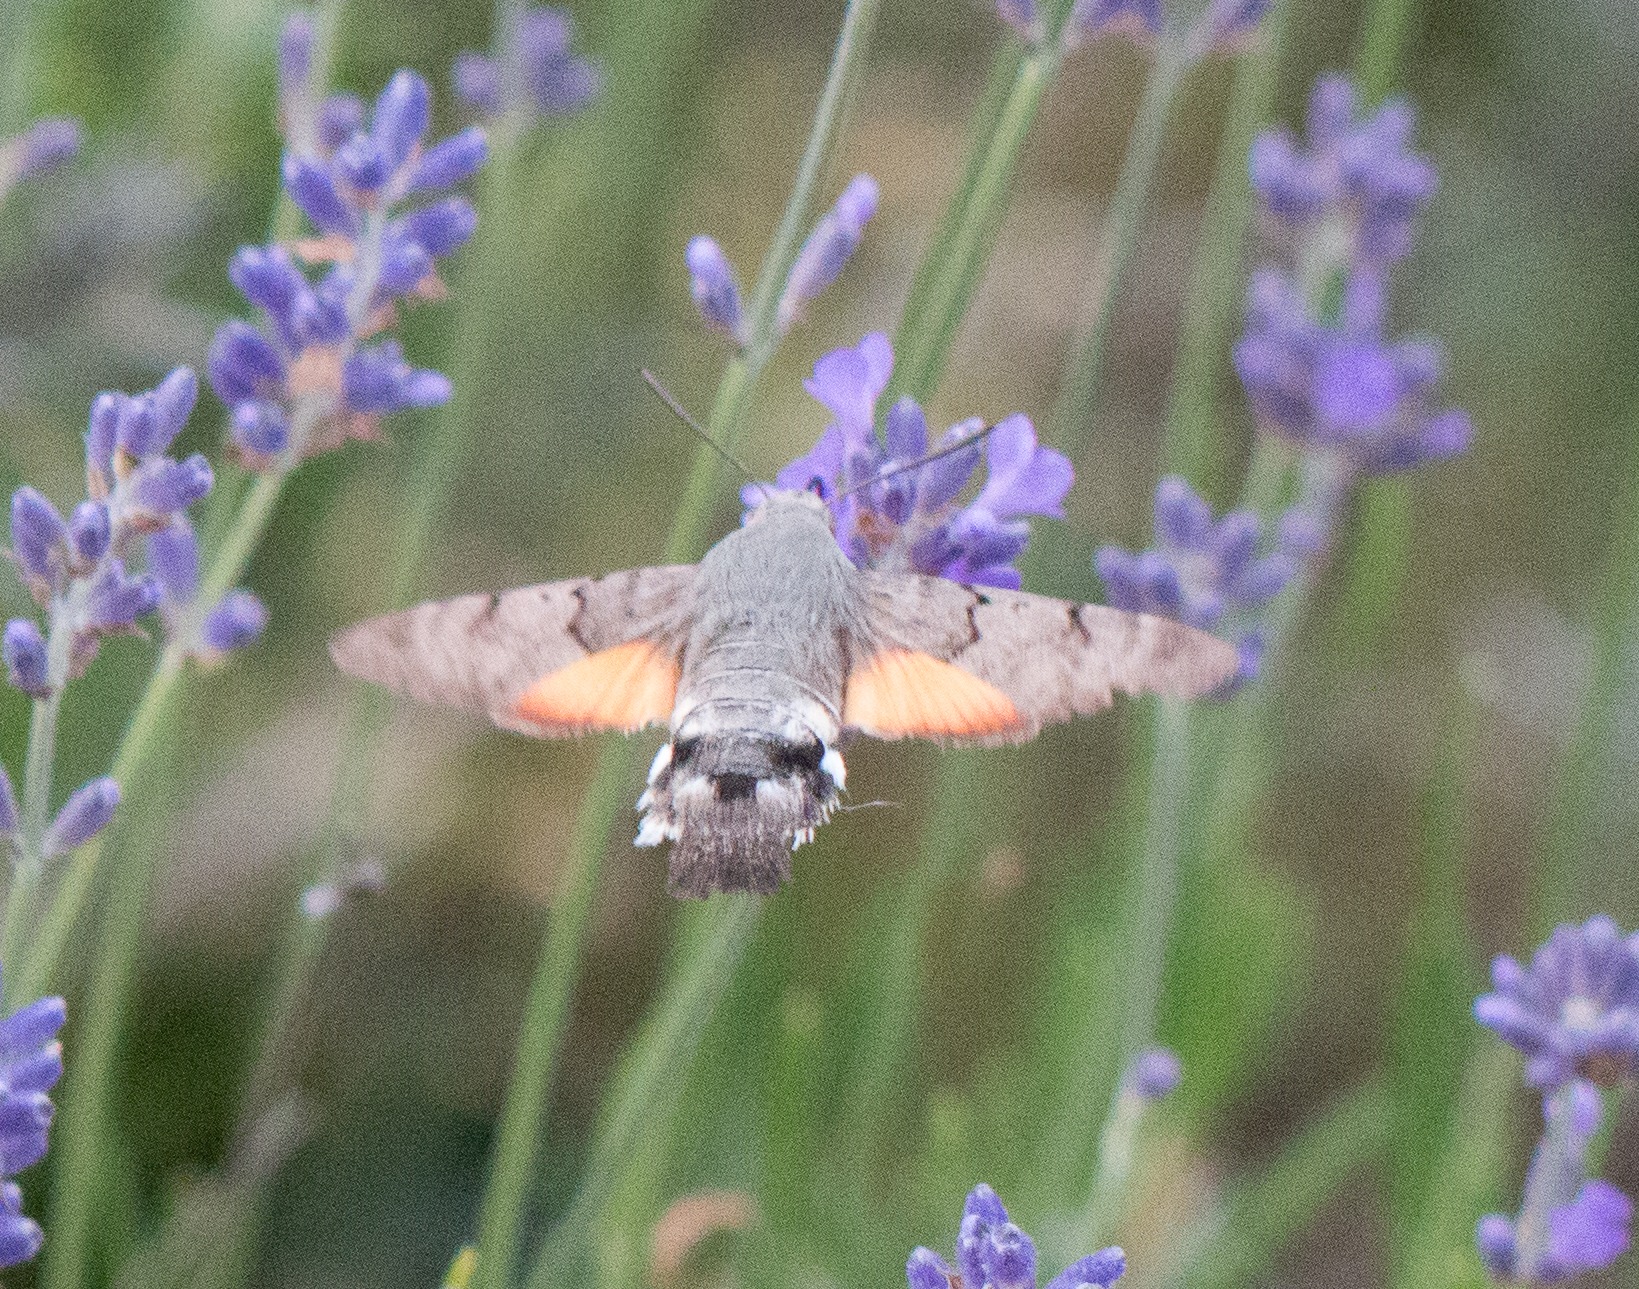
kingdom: Animalia
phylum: Arthropoda
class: Insecta
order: Lepidoptera
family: Sphingidae
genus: Macroglossum
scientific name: Macroglossum stellatarum
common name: Duehale
